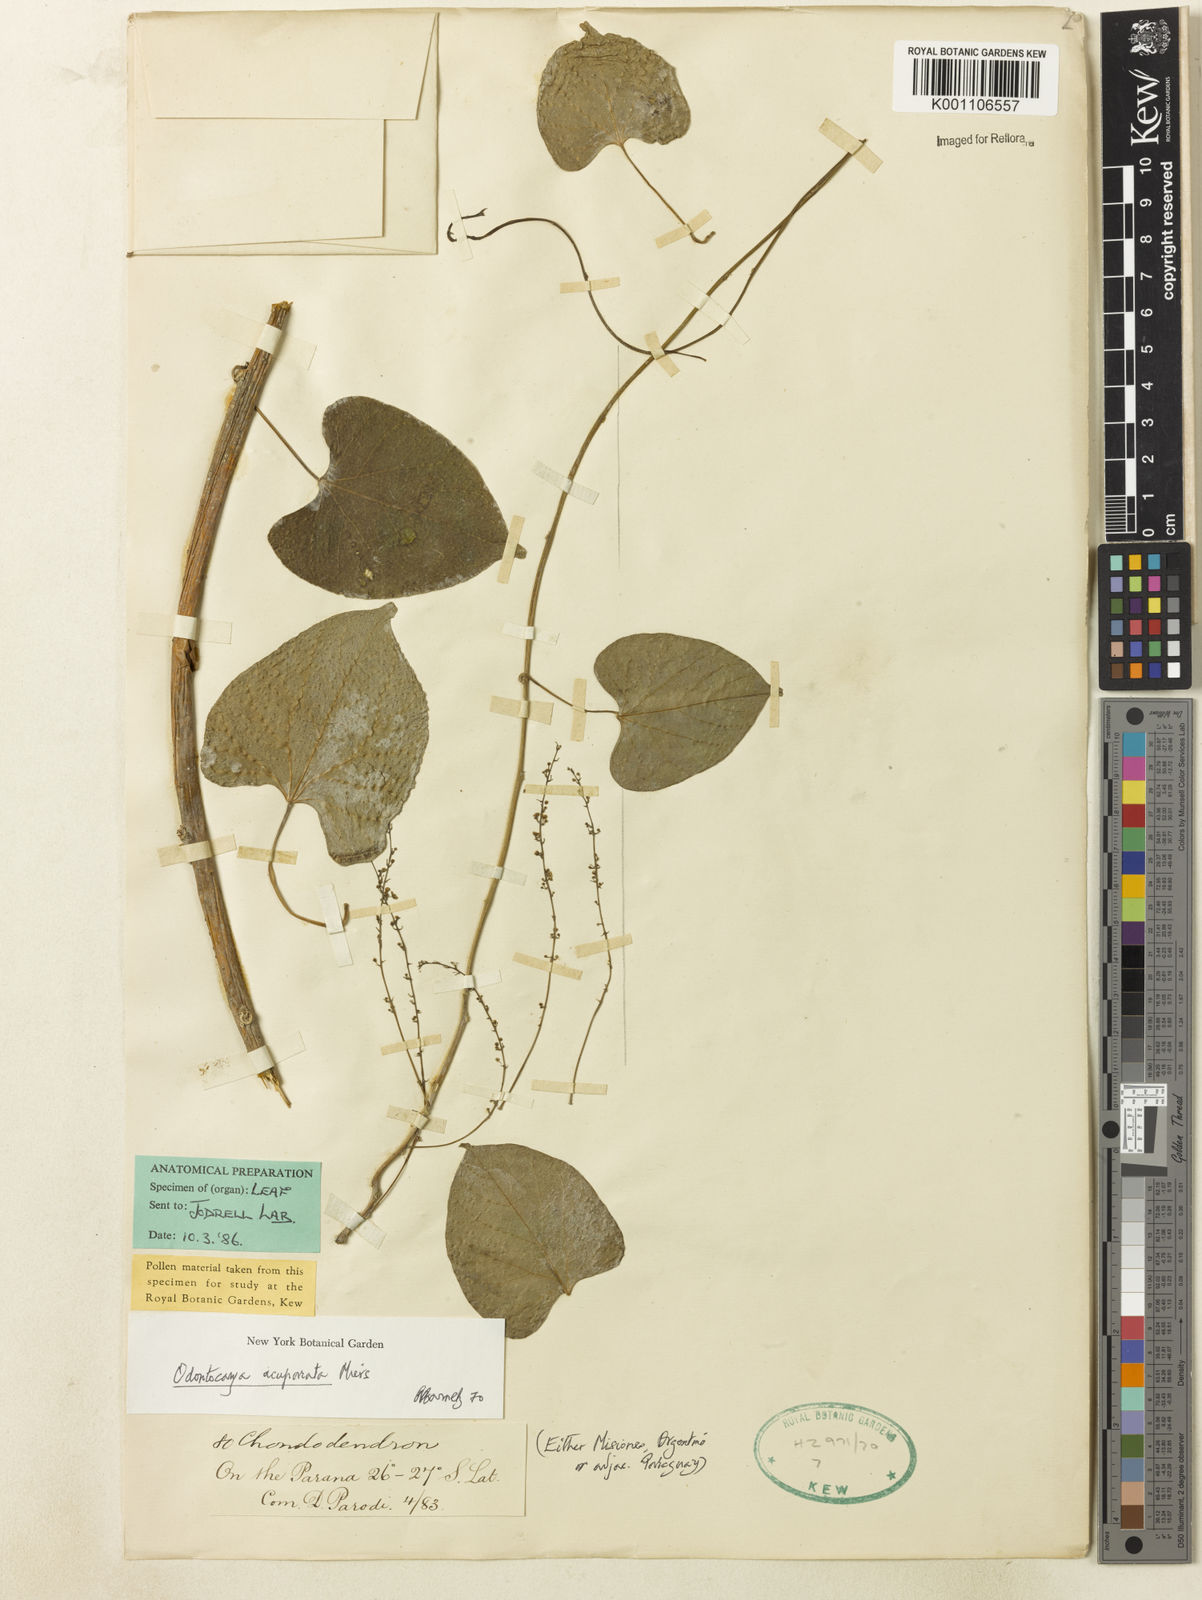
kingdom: Plantae
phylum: Tracheophyta
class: Magnoliopsida
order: Ranunculales
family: Menispermaceae
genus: Odontocarya
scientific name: Odontocarya acuparata
